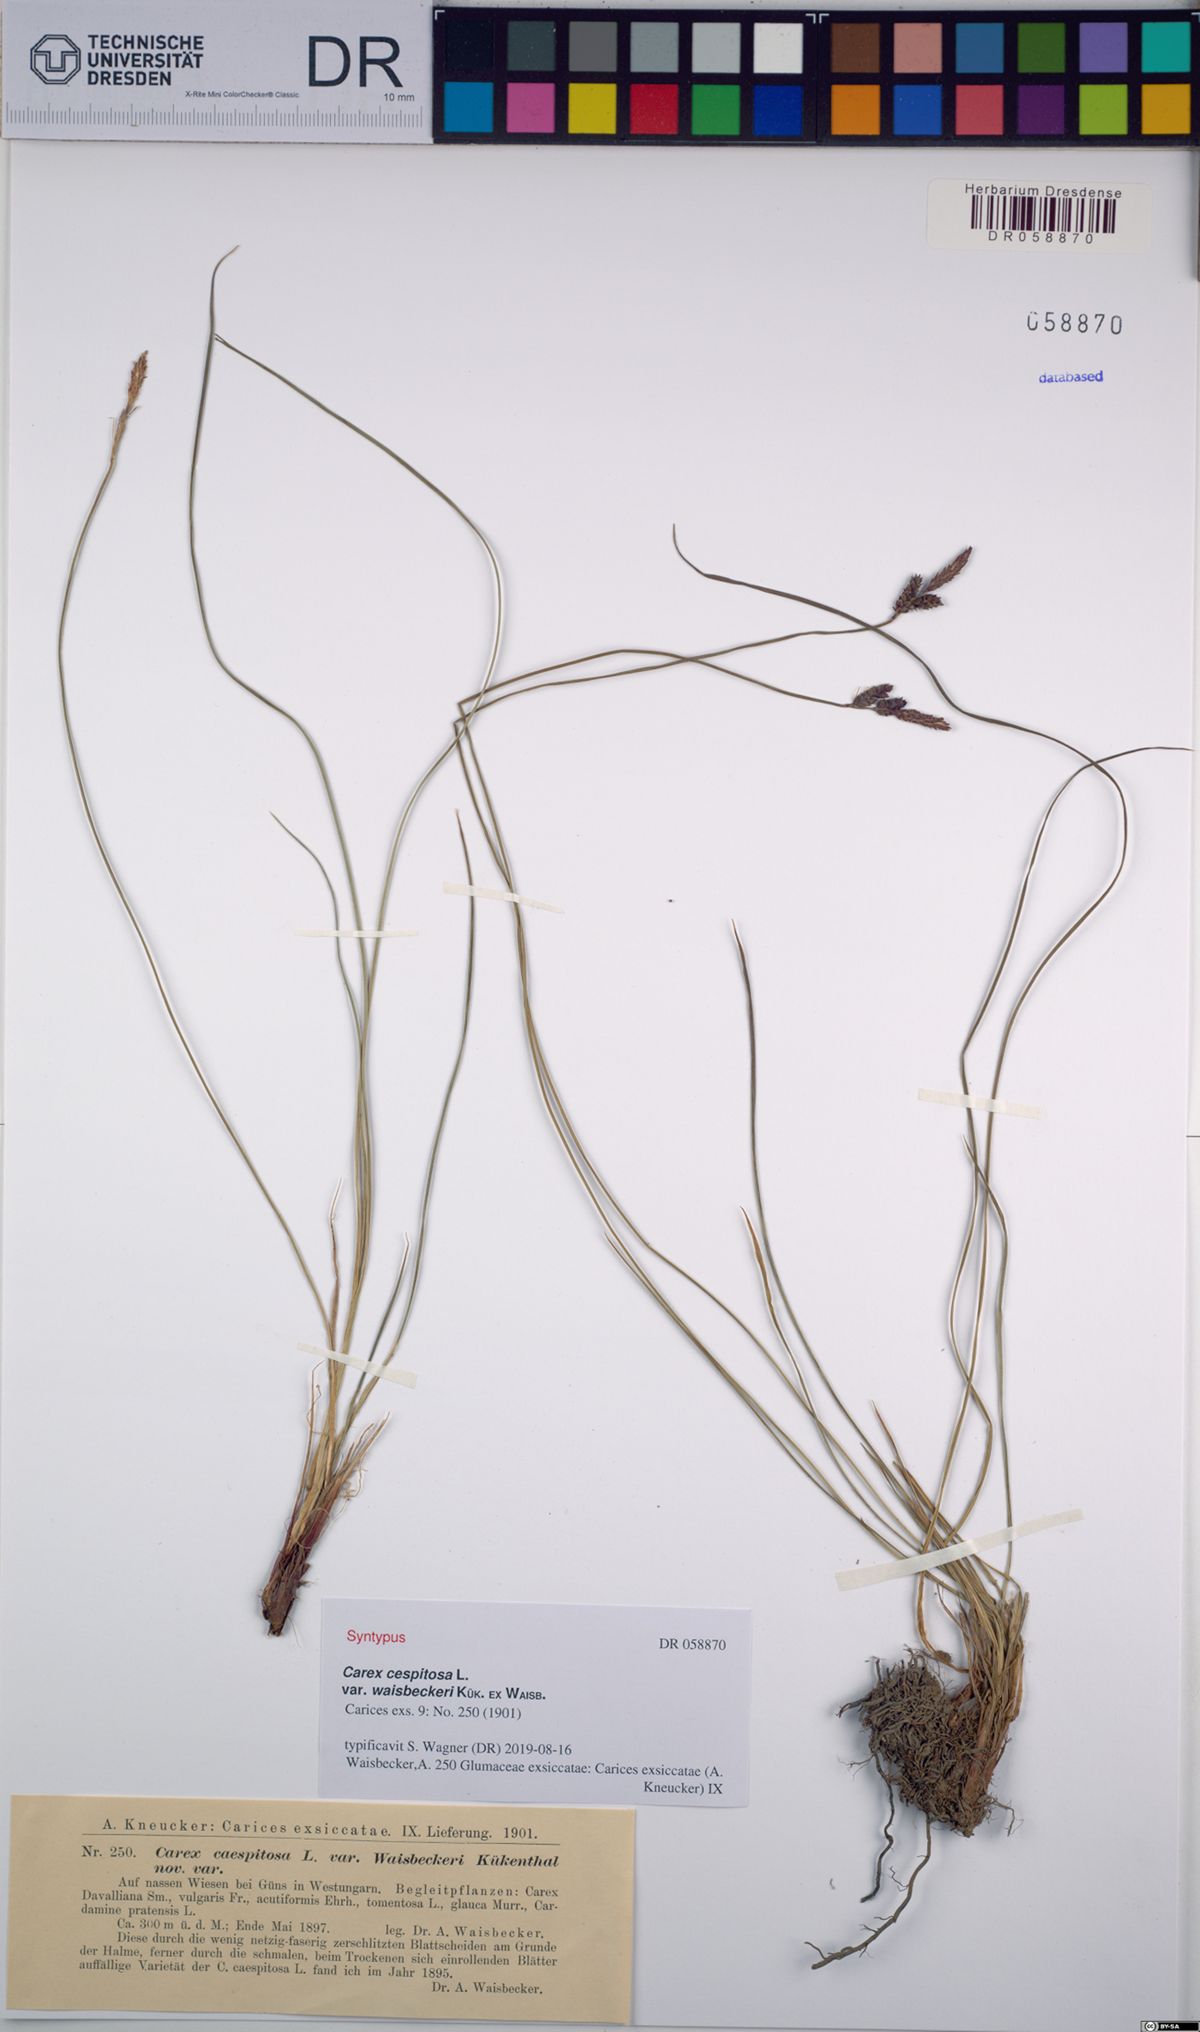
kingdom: Plantae
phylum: Tracheophyta
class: Liliopsida
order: Poales
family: Cyperaceae
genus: Carex
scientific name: Carex cespitosa
